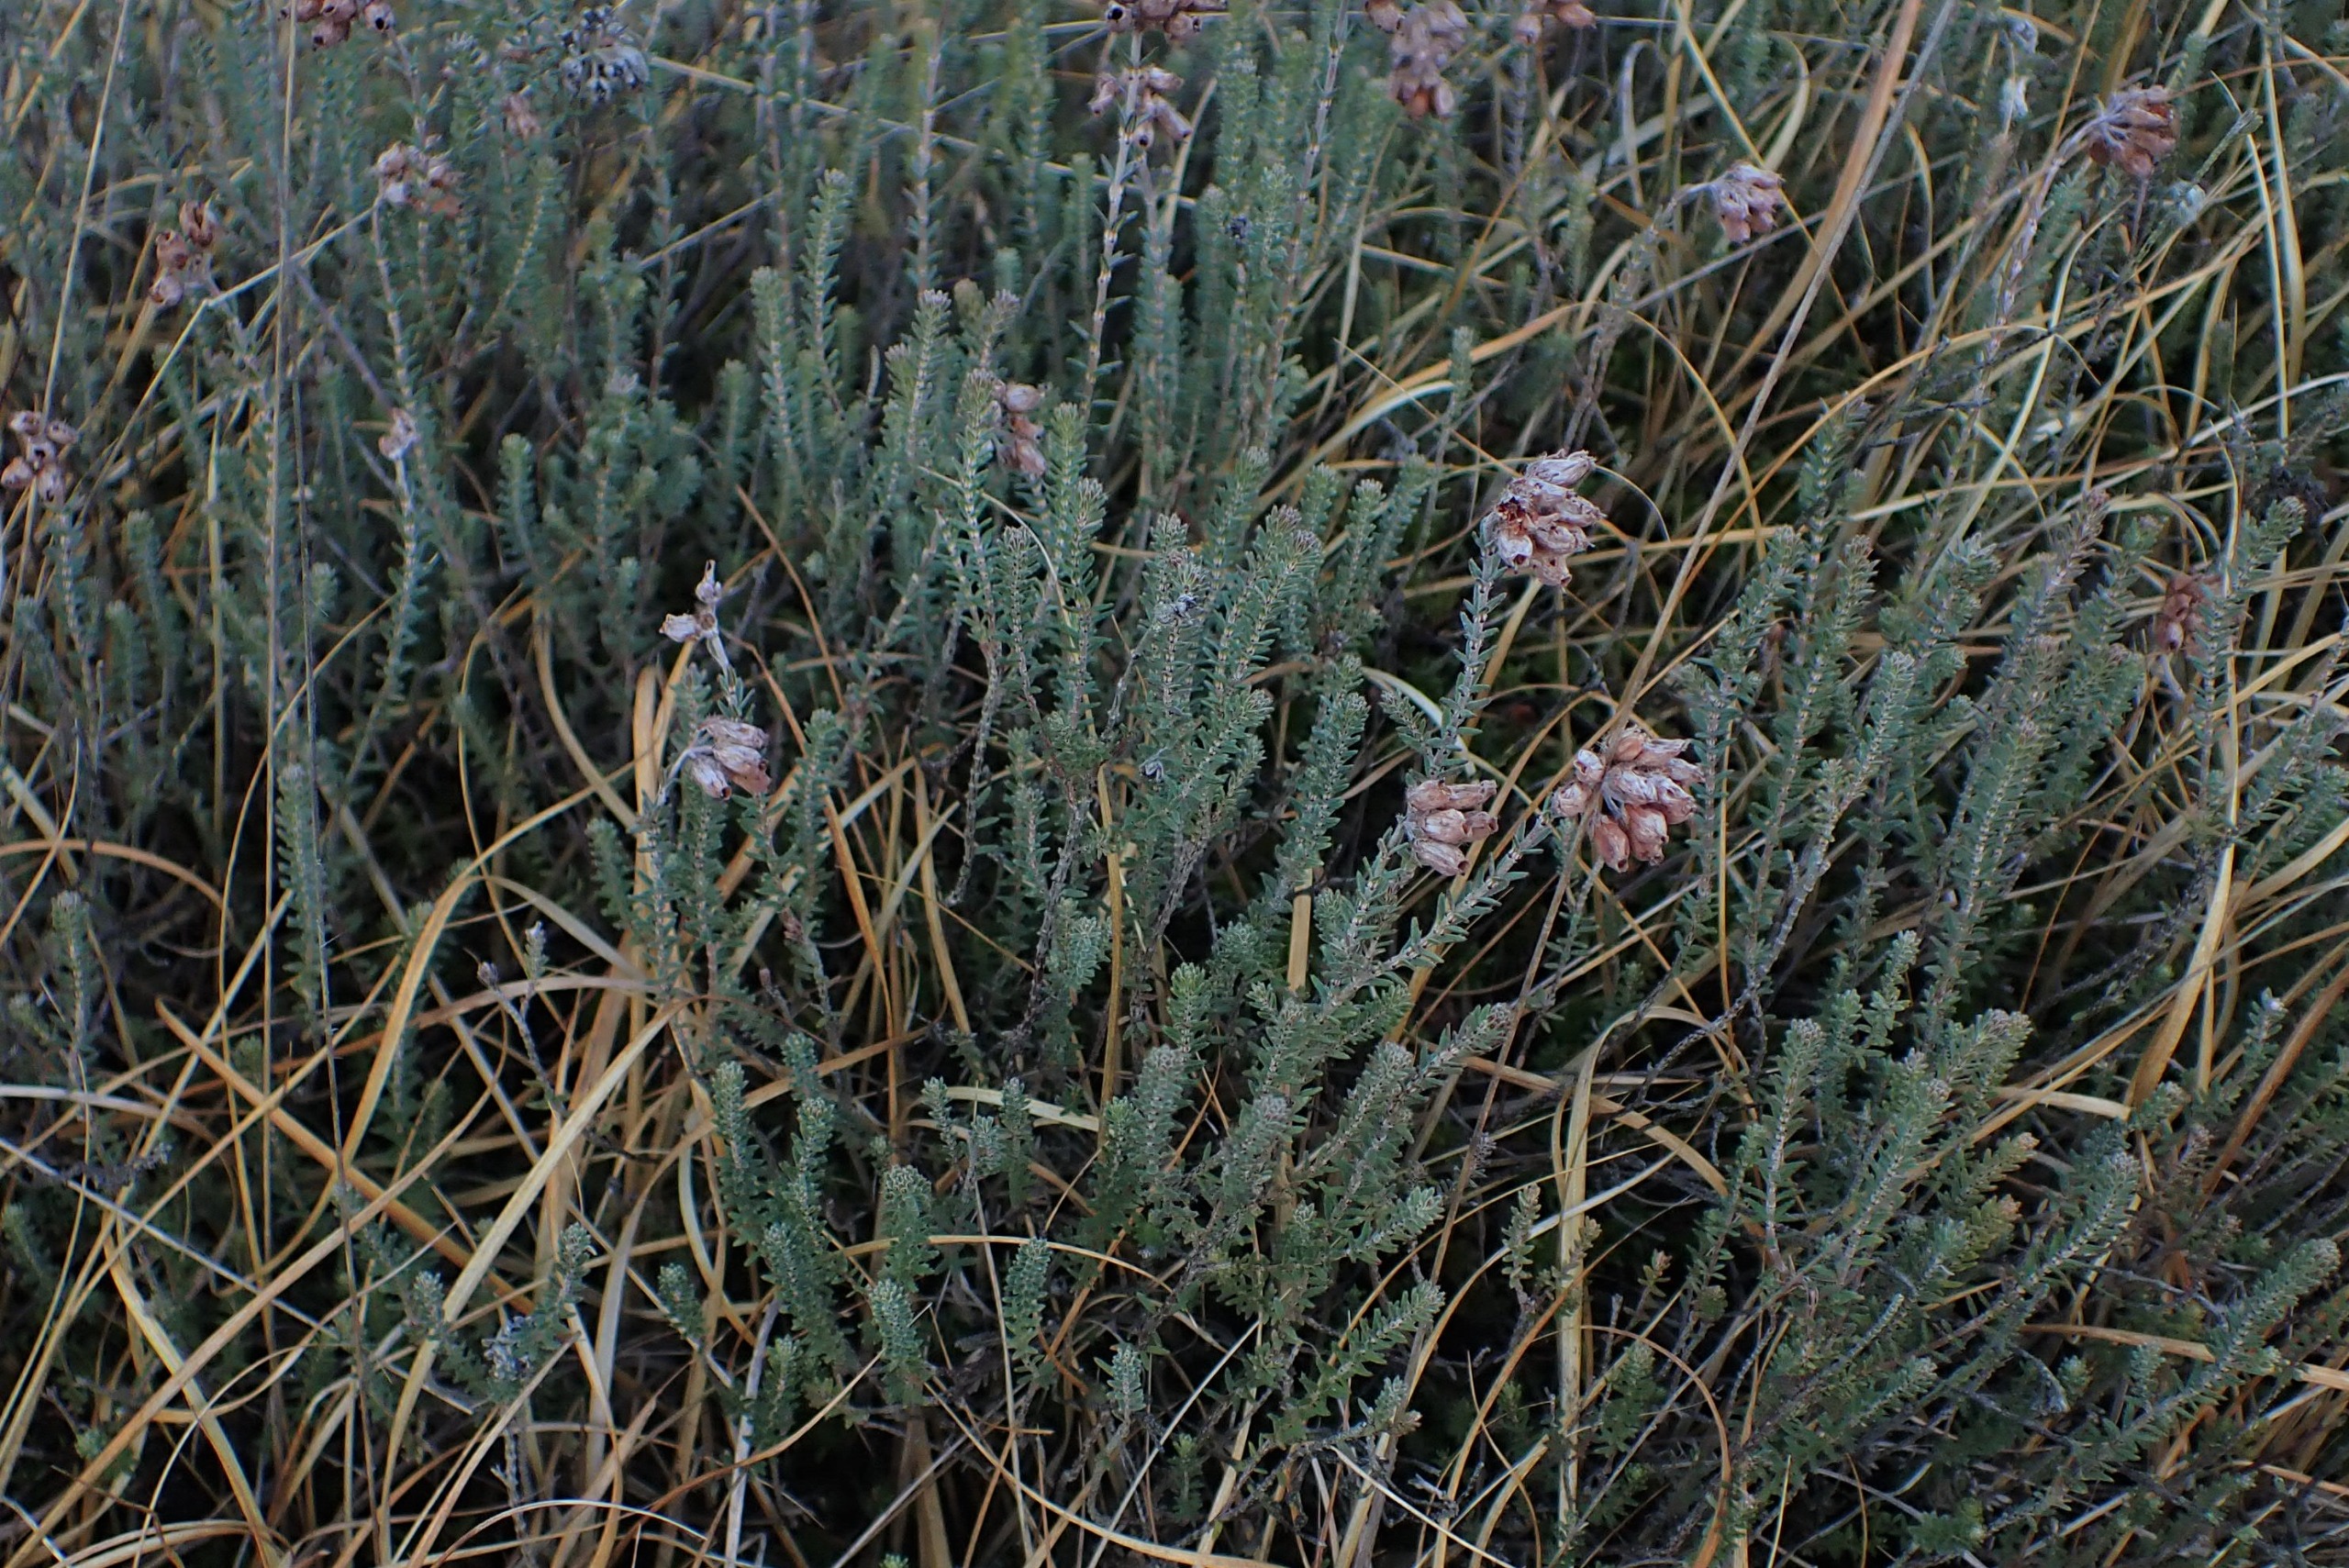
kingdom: Plantae
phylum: Tracheophyta
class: Magnoliopsida
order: Ericales
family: Ericaceae
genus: Erica
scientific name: Erica tetralix
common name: Klokkelyng
